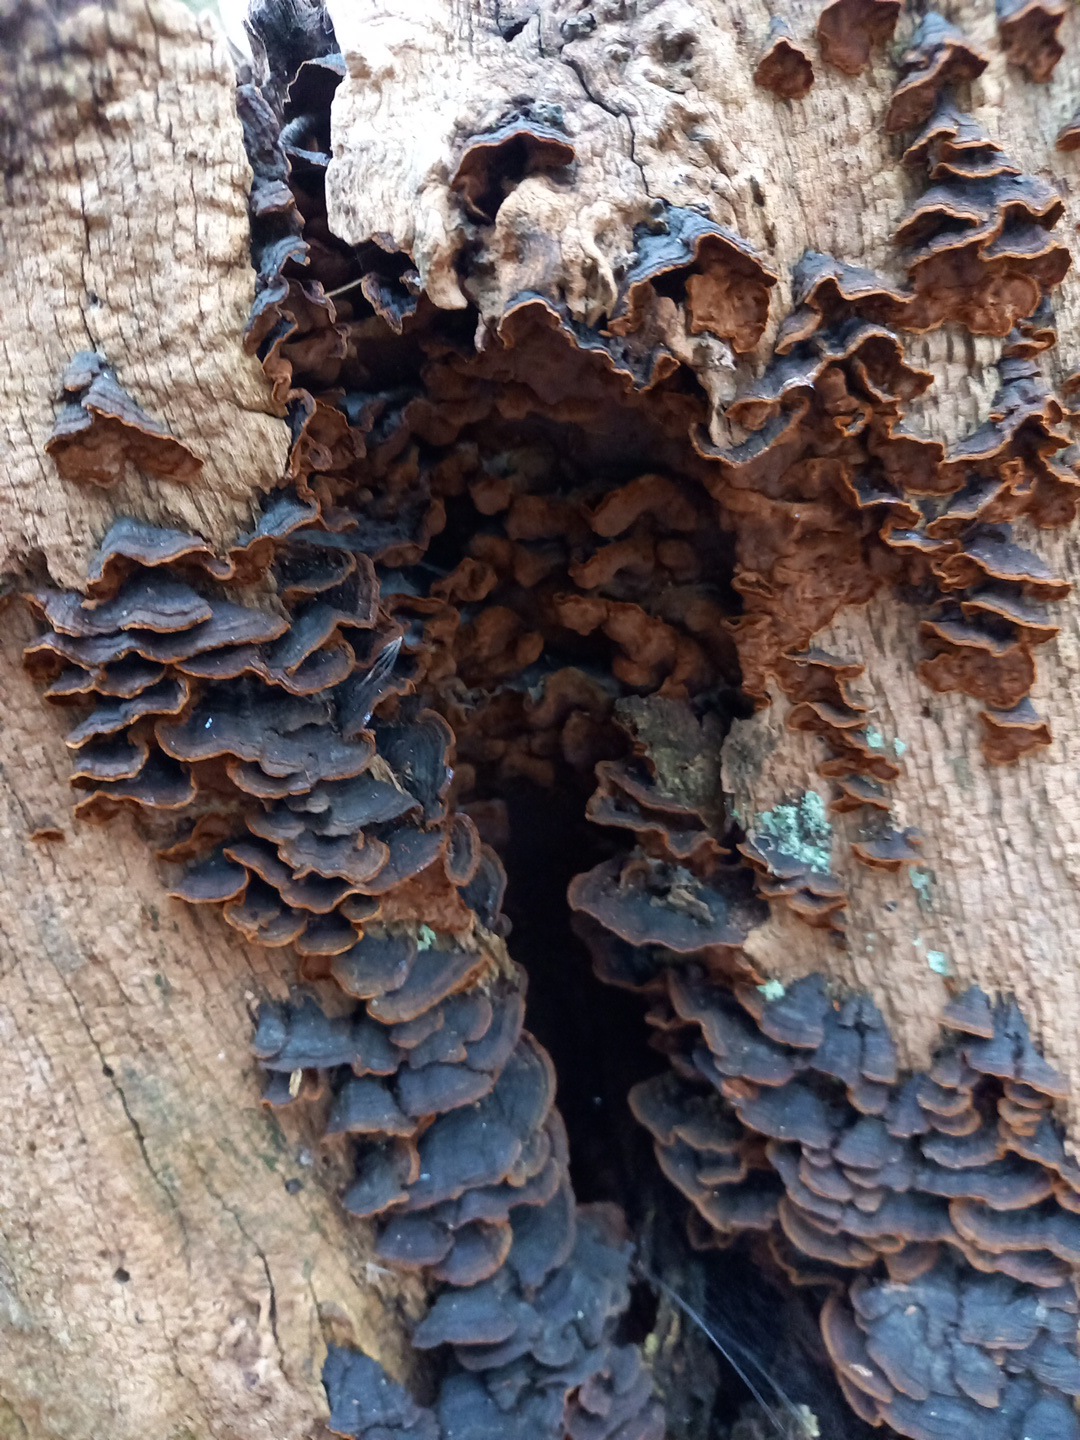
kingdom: Fungi
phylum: Basidiomycota
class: Agaricomycetes
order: Hymenochaetales
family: Hymenochaetaceae
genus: Hymenochaete
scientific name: Hymenochaete rubiginosa
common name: stiv ruslædersvamp
